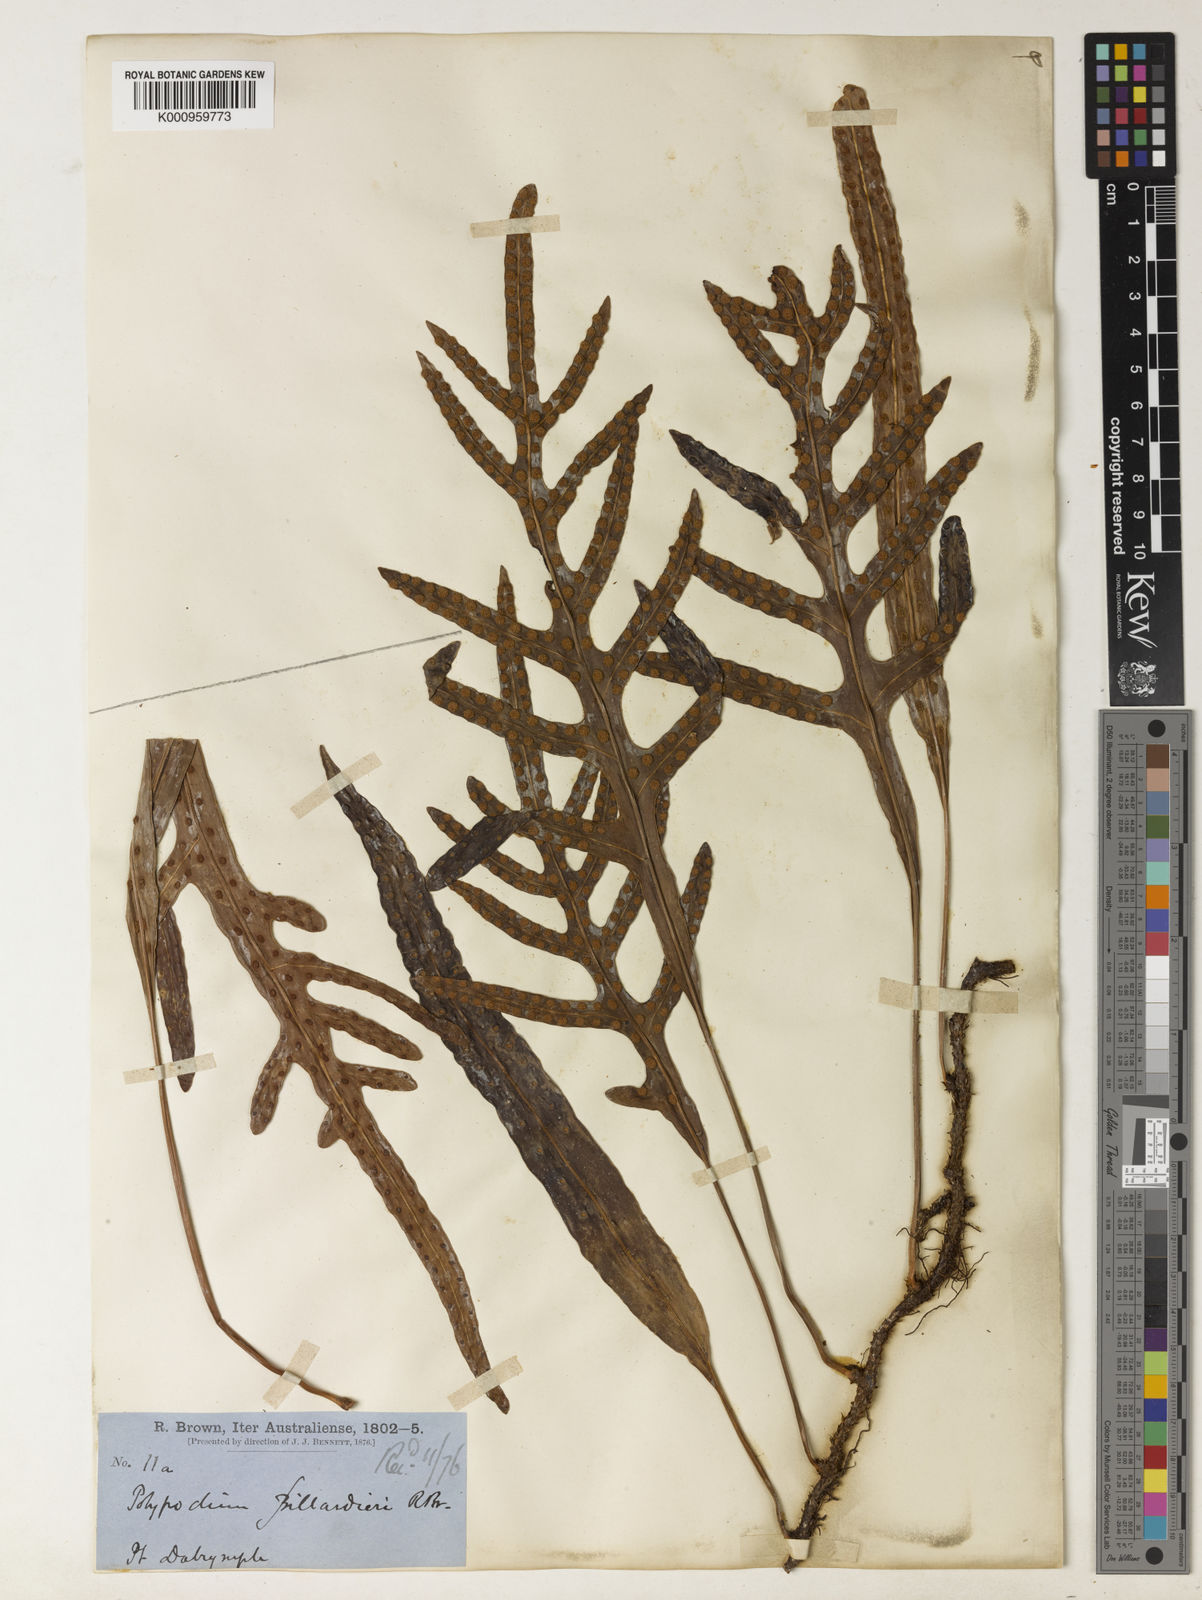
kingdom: Plantae
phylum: Tracheophyta
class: Polypodiopsida
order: Polypodiales
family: Polypodiaceae
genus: Drynaria
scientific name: Drynaria rigidula
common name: Basket fern
